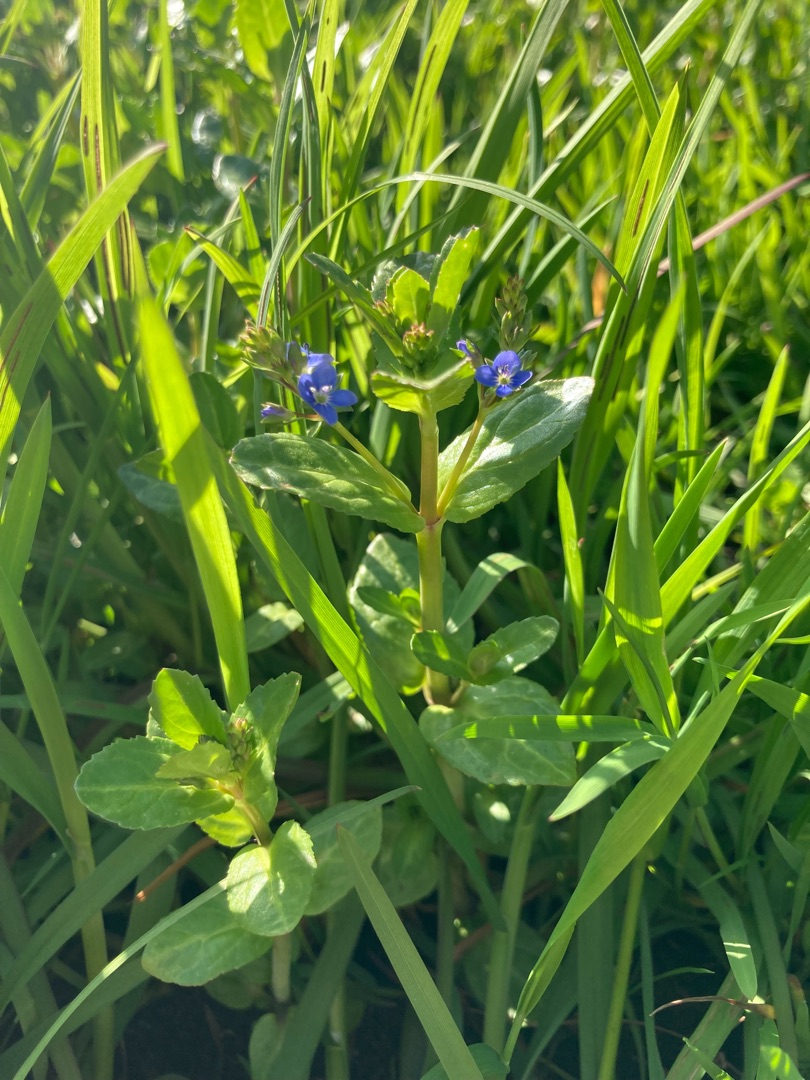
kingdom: Plantae
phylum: Tracheophyta
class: Magnoliopsida
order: Lamiales
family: Plantaginaceae
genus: Veronica
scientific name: Veronica beccabunga
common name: Tykbladet ærenpris
